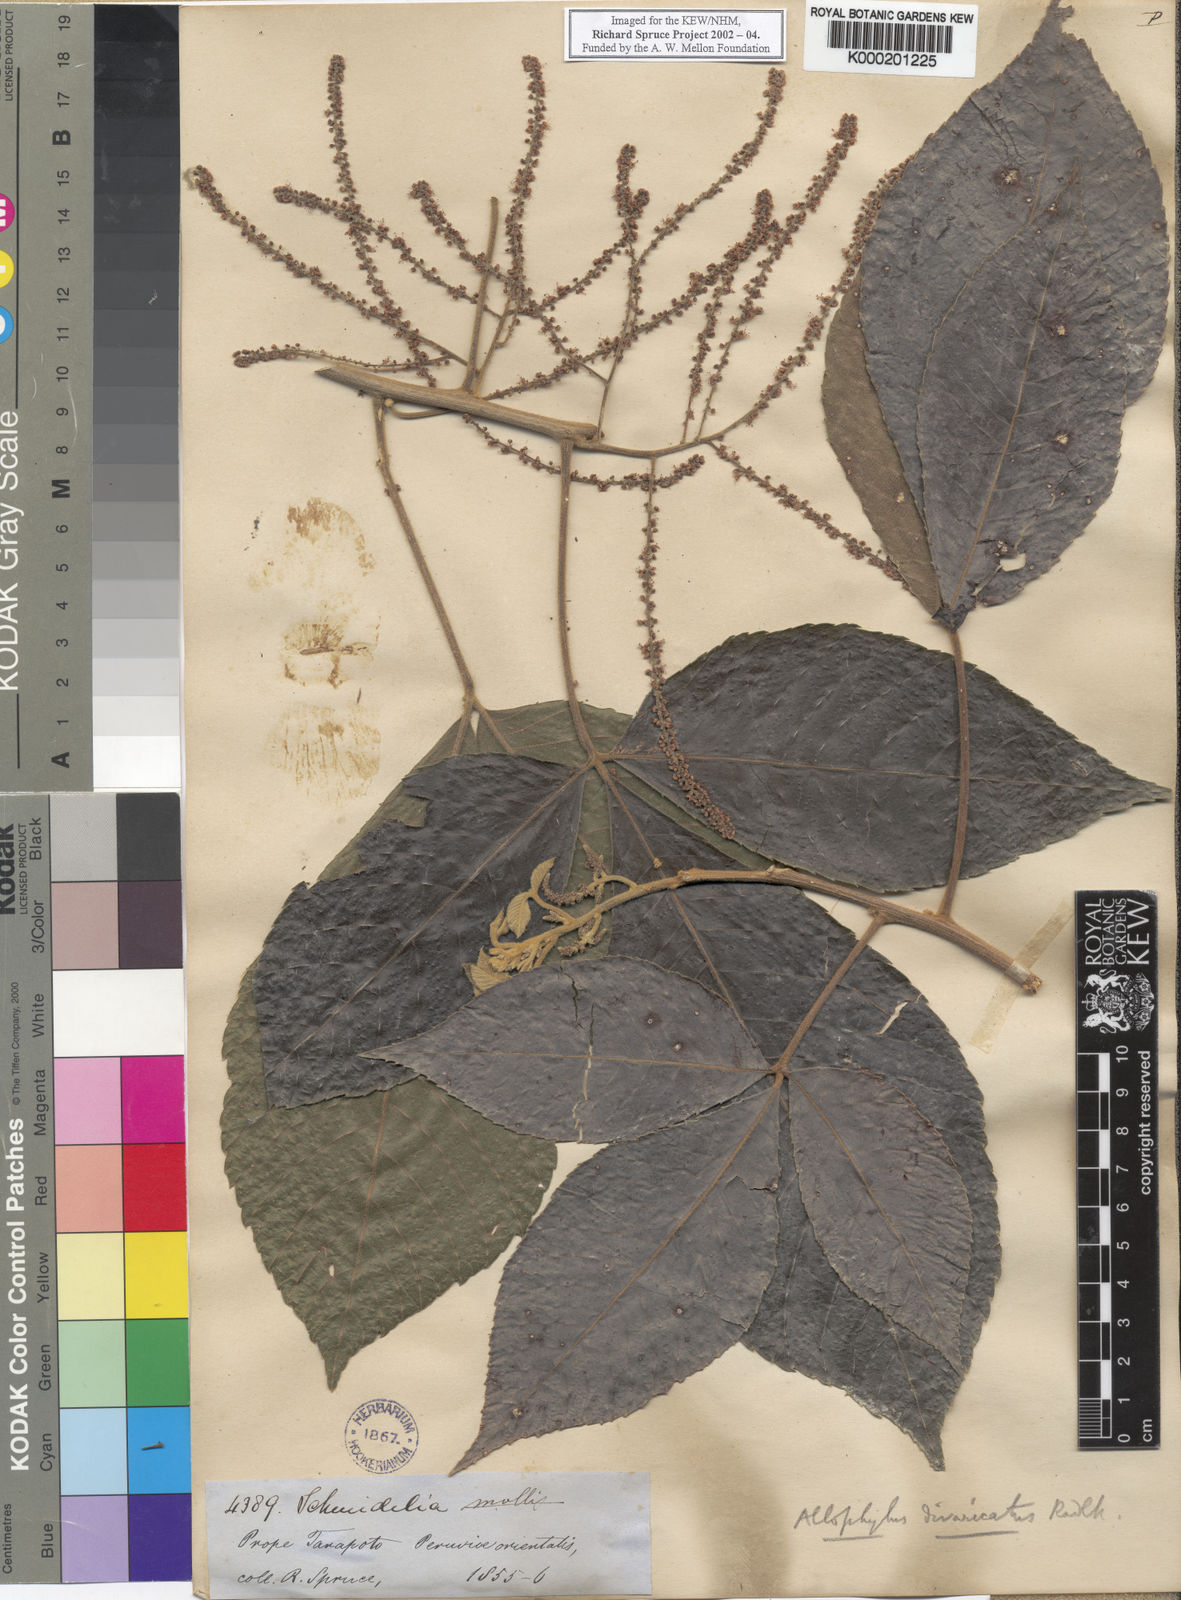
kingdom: Plantae
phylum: Tracheophyta
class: Magnoliopsida
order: Sapindales
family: Sapindaceae
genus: Allophylus
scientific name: Allophylus divaricatus
